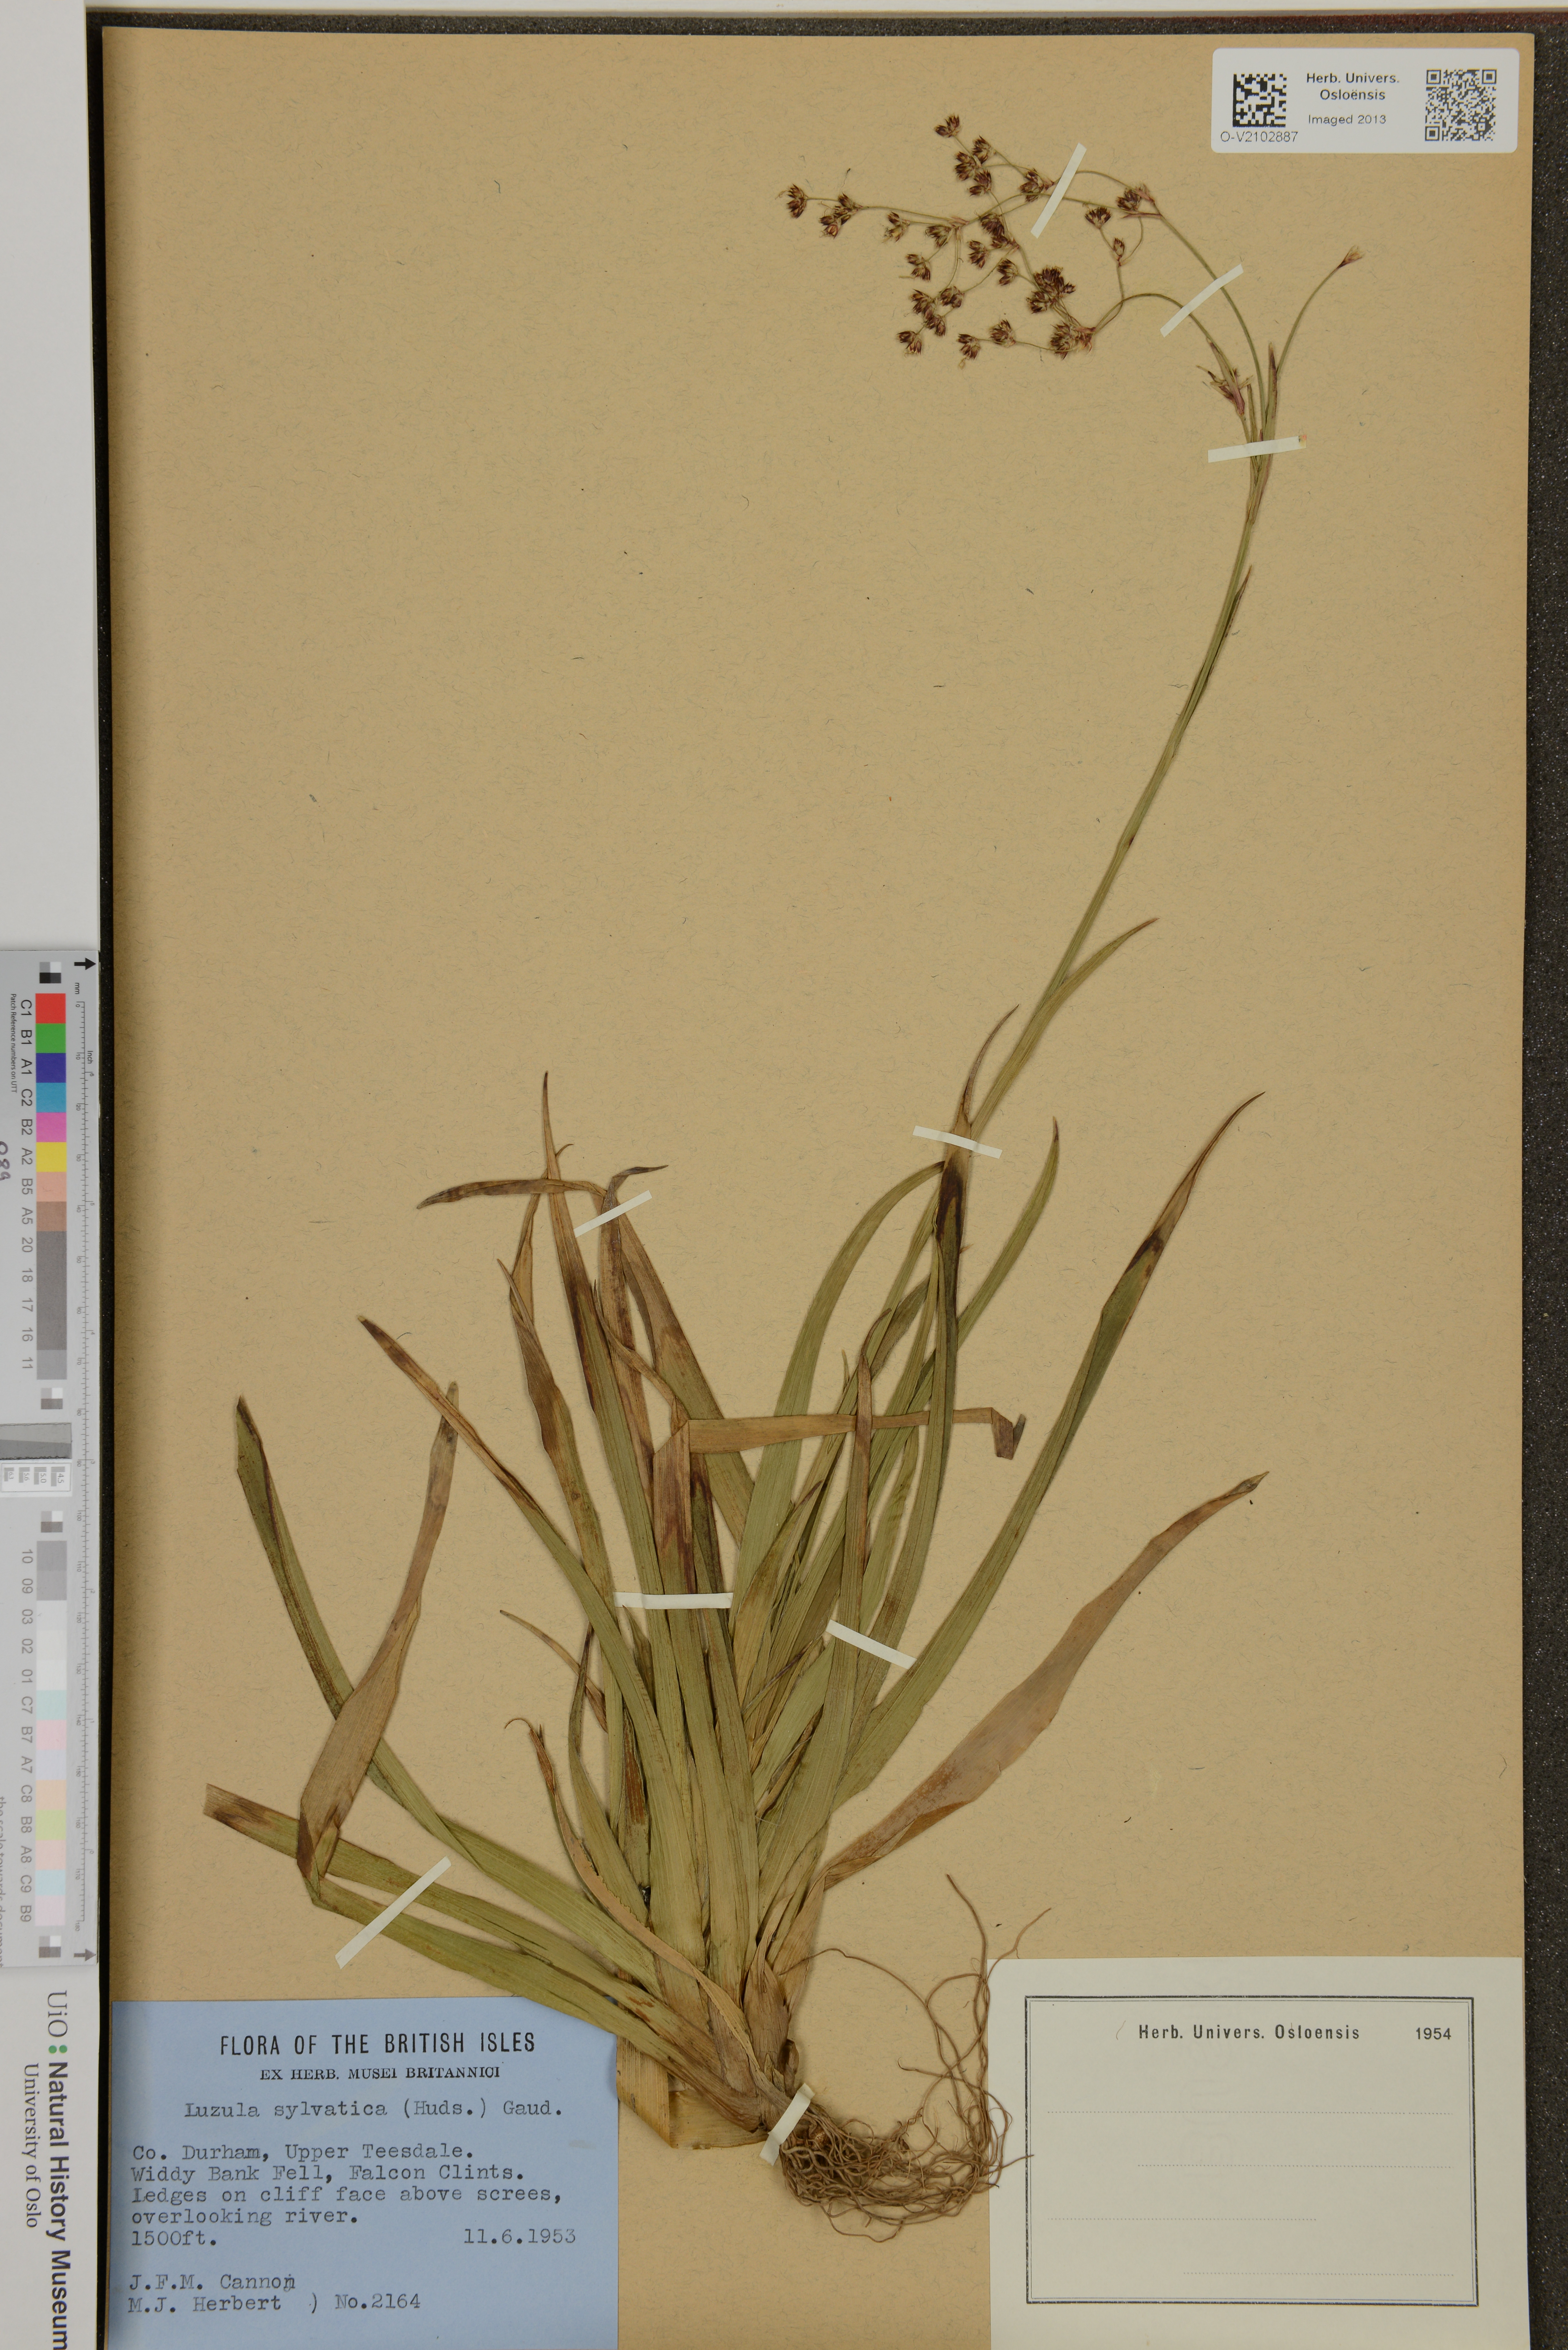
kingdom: Plantae
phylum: Tracheophyta
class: Liliopsida
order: Poales
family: Juncaceae
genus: Luzula
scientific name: Luzula sylvatica
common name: Great wood-rush
